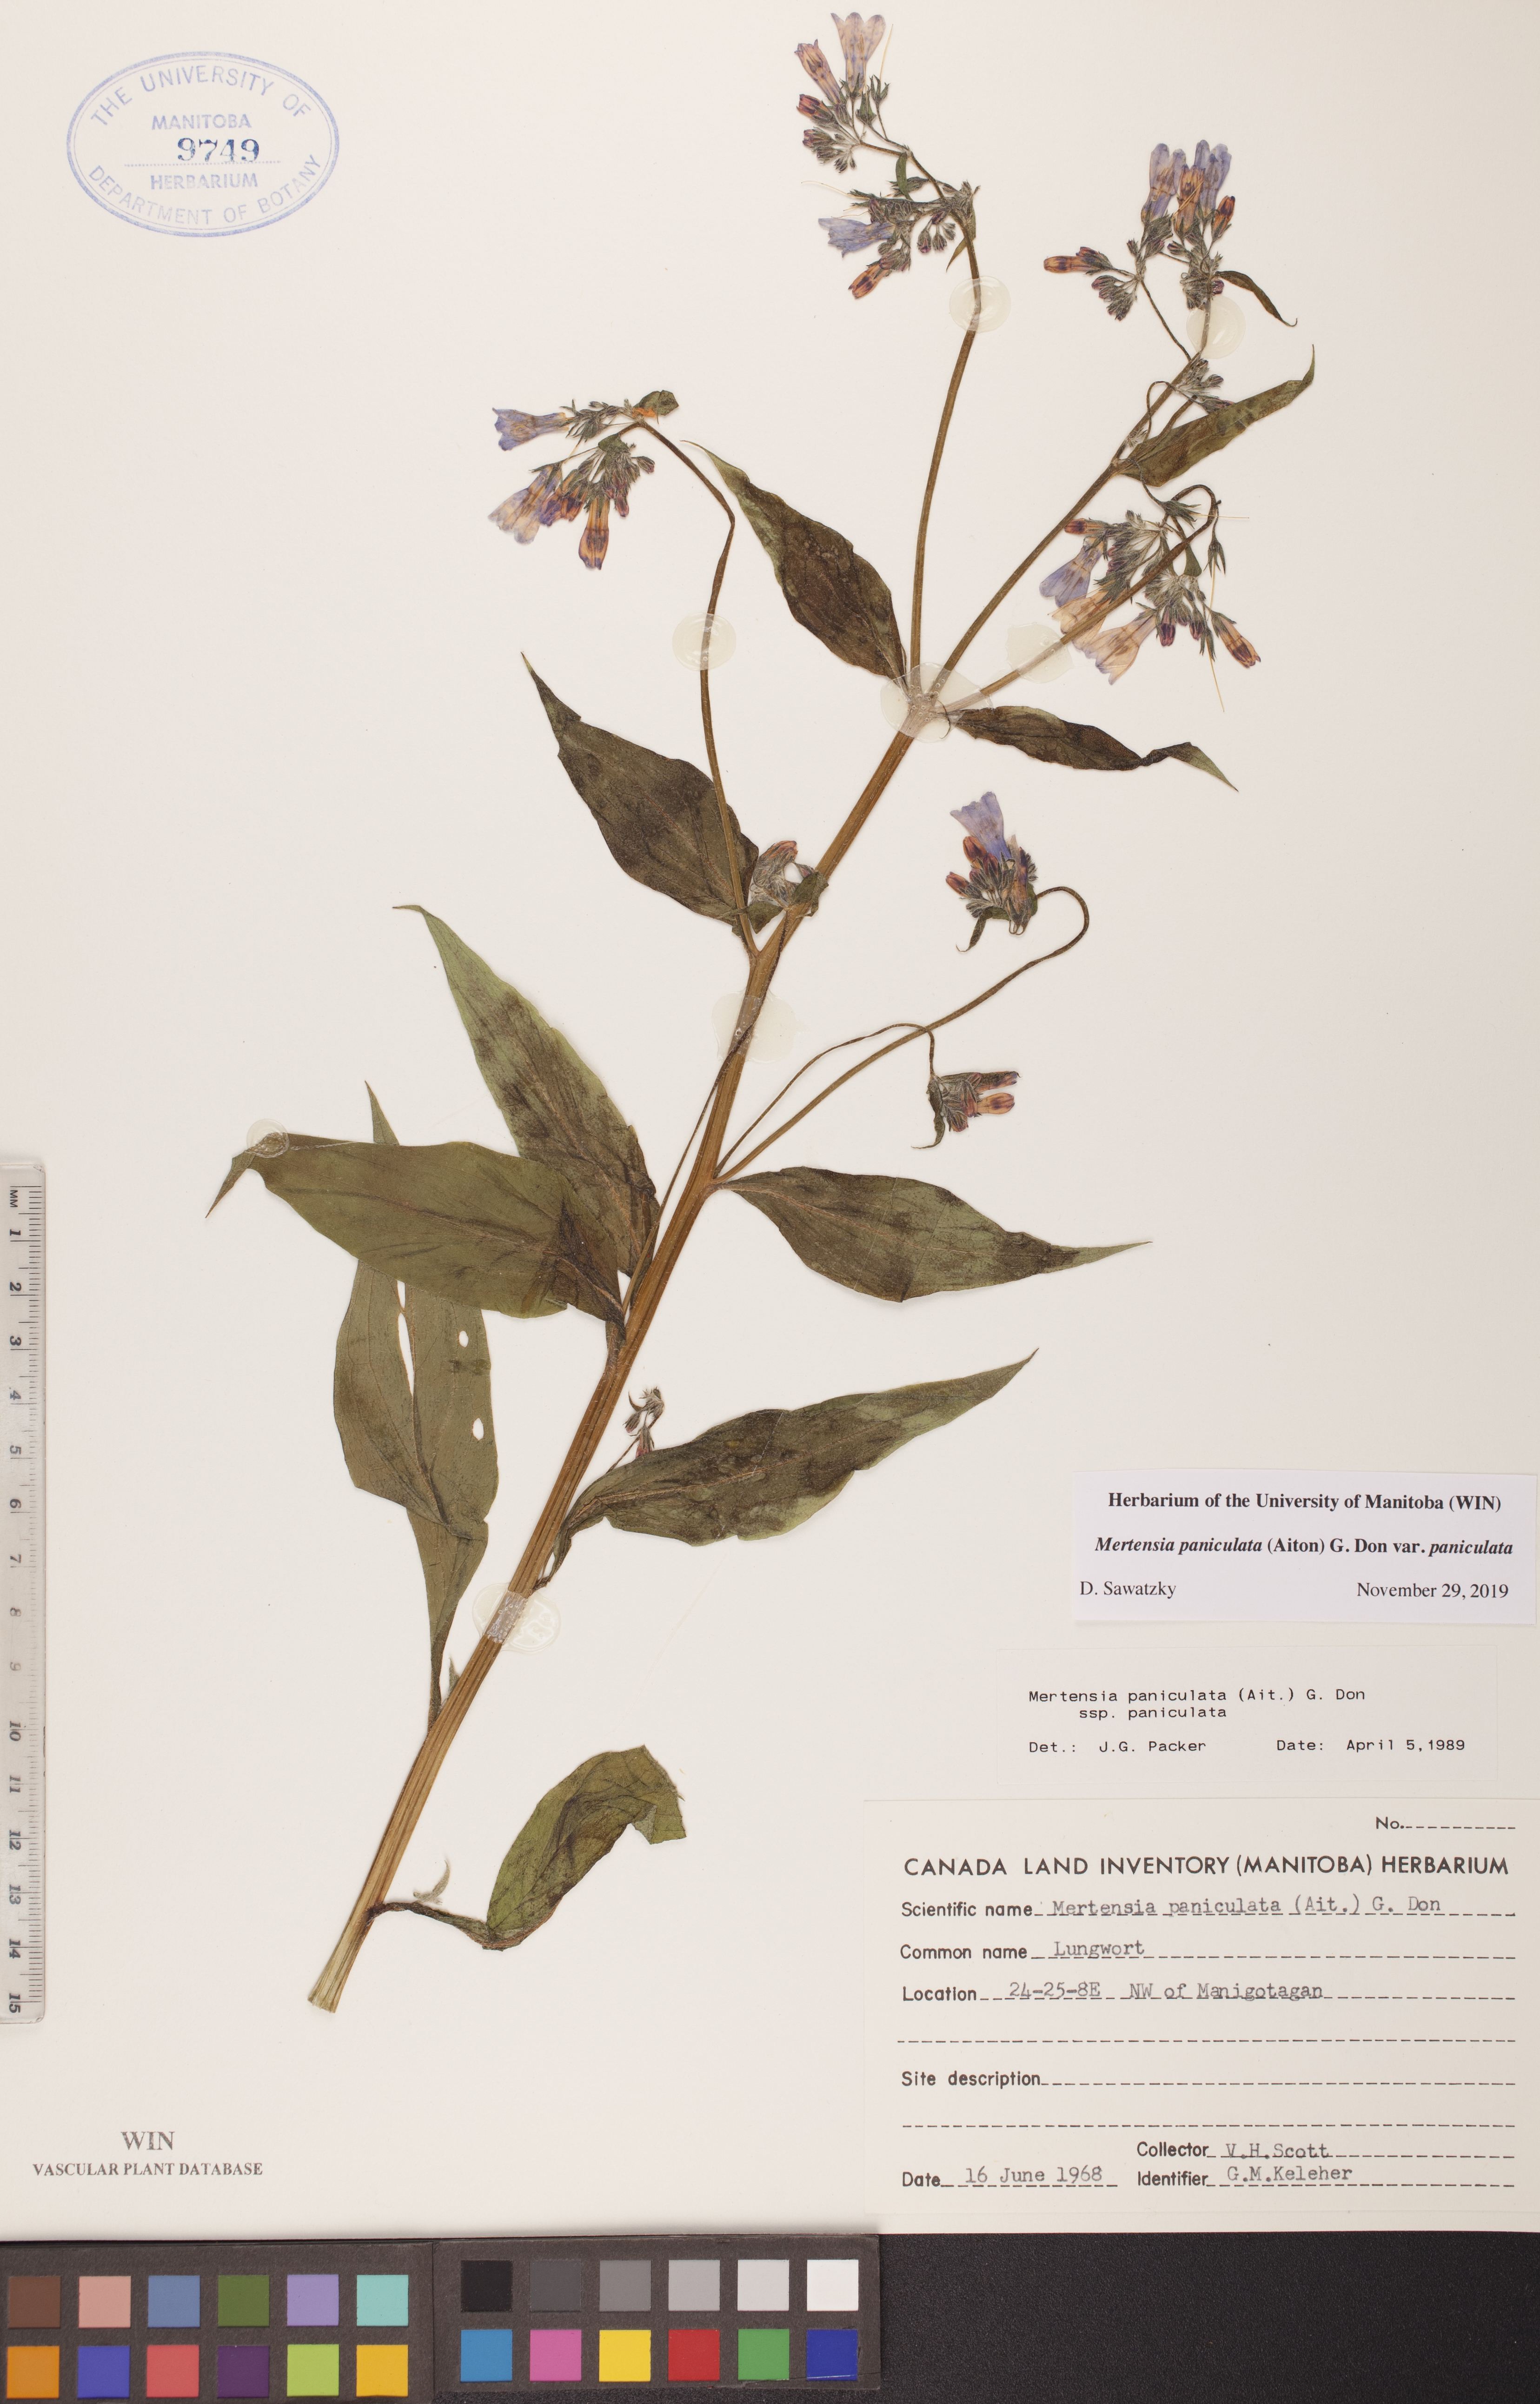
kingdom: Plantae
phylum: Tracheophyta
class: Magnoliopsida
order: Boraginales
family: Boraginaceae
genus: Mertensia
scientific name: Mertensia paniculata
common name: Panicled bluebells
